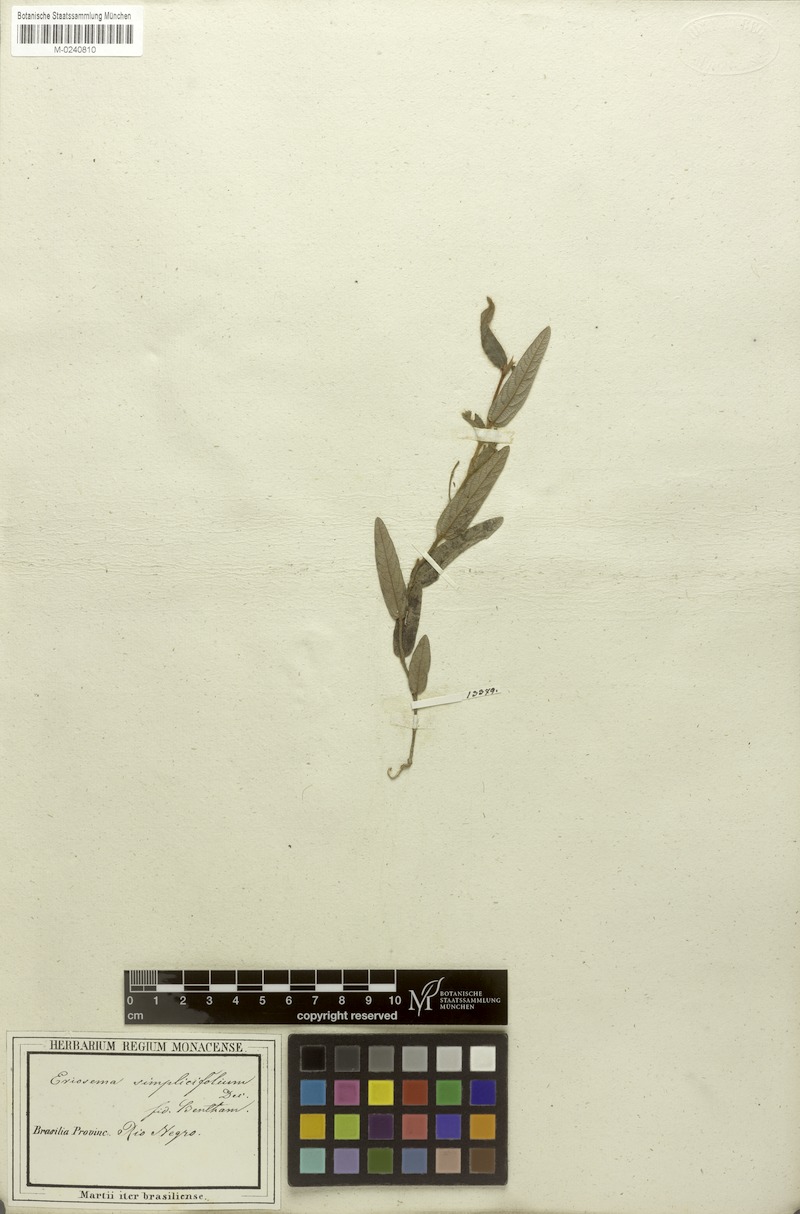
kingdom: Plantae
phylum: Tracheophyta
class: Magnoliopsida
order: Fabales
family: Fabaceae
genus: Eriosema
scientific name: Eriosema simplicifolium
